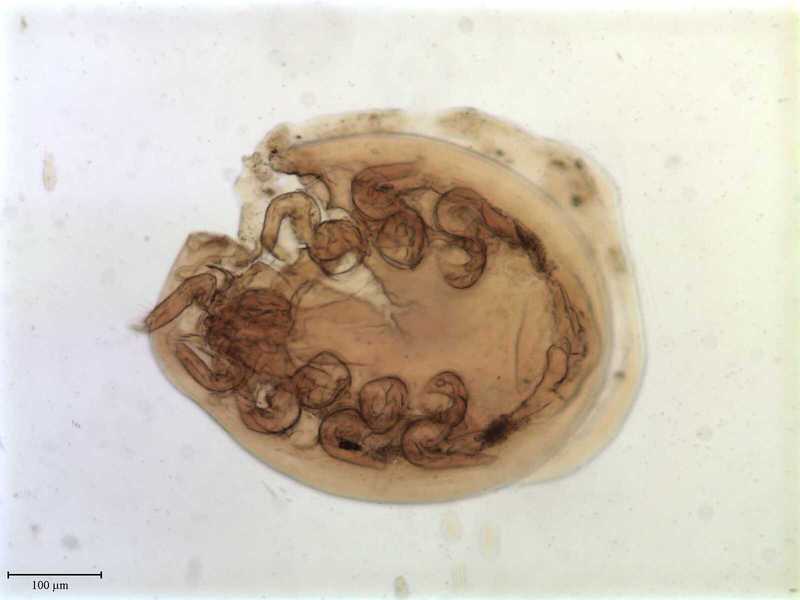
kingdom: Animalia
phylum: Arthropoda
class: Arachnida
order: Mesostigmata
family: Uropodidae
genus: Uropoda
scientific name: Uropoda
